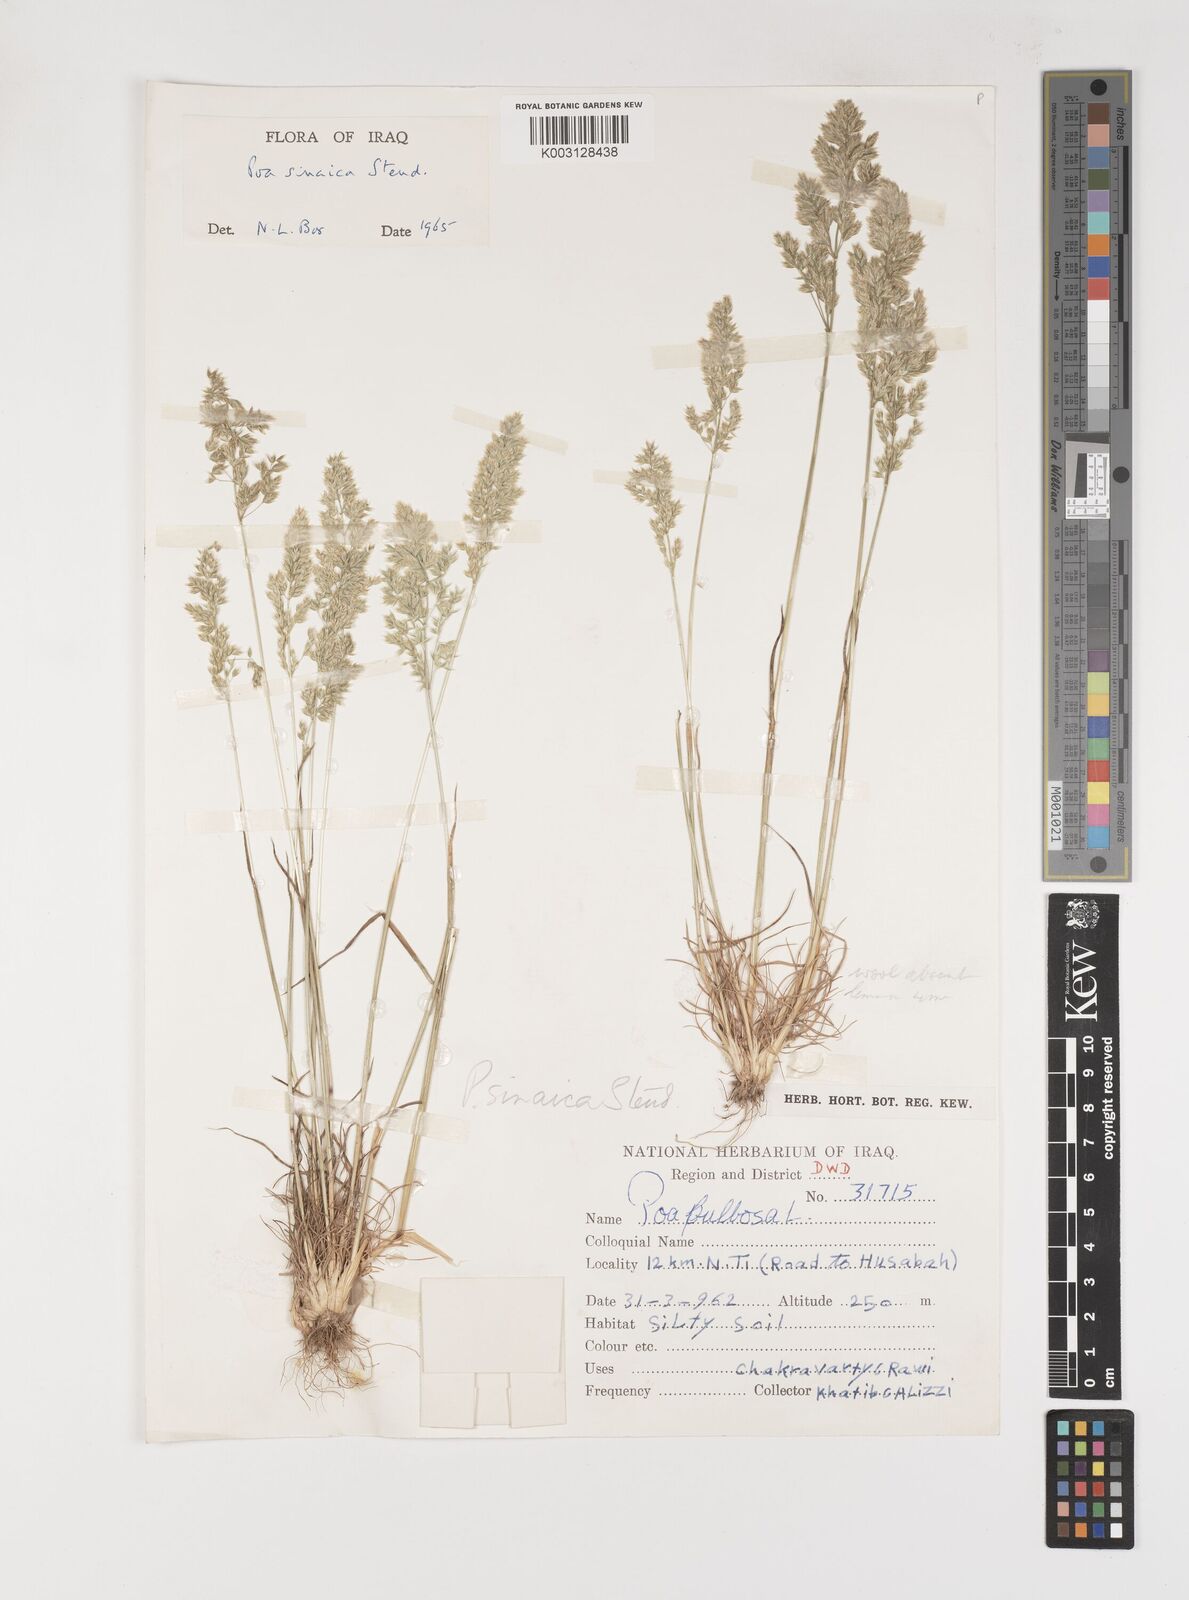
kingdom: Plantae
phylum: Tracheophyta
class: Liliopsida
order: Poales
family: Poaceae
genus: Poa
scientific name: Poa sinaica
